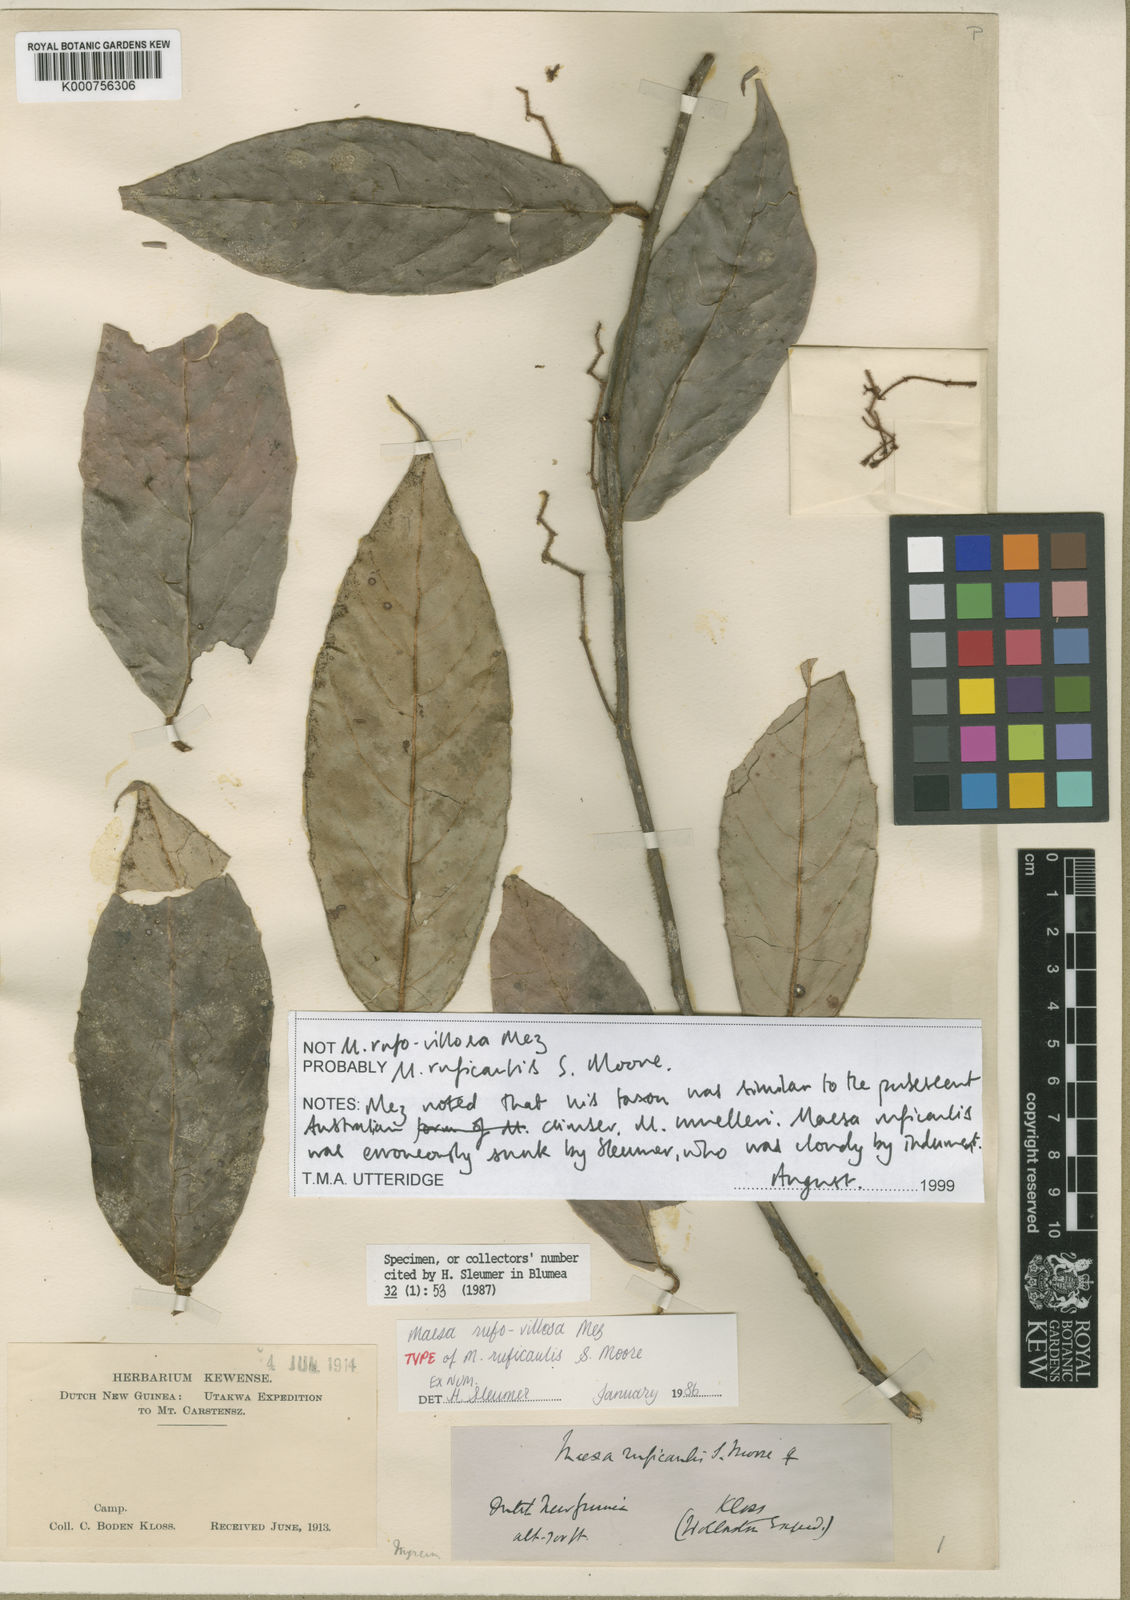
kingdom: Plantae
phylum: Tracheophyta
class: Magnoliopsida
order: Ericales
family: Primulaceae
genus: Maesa
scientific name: Maesa ruficaulis
